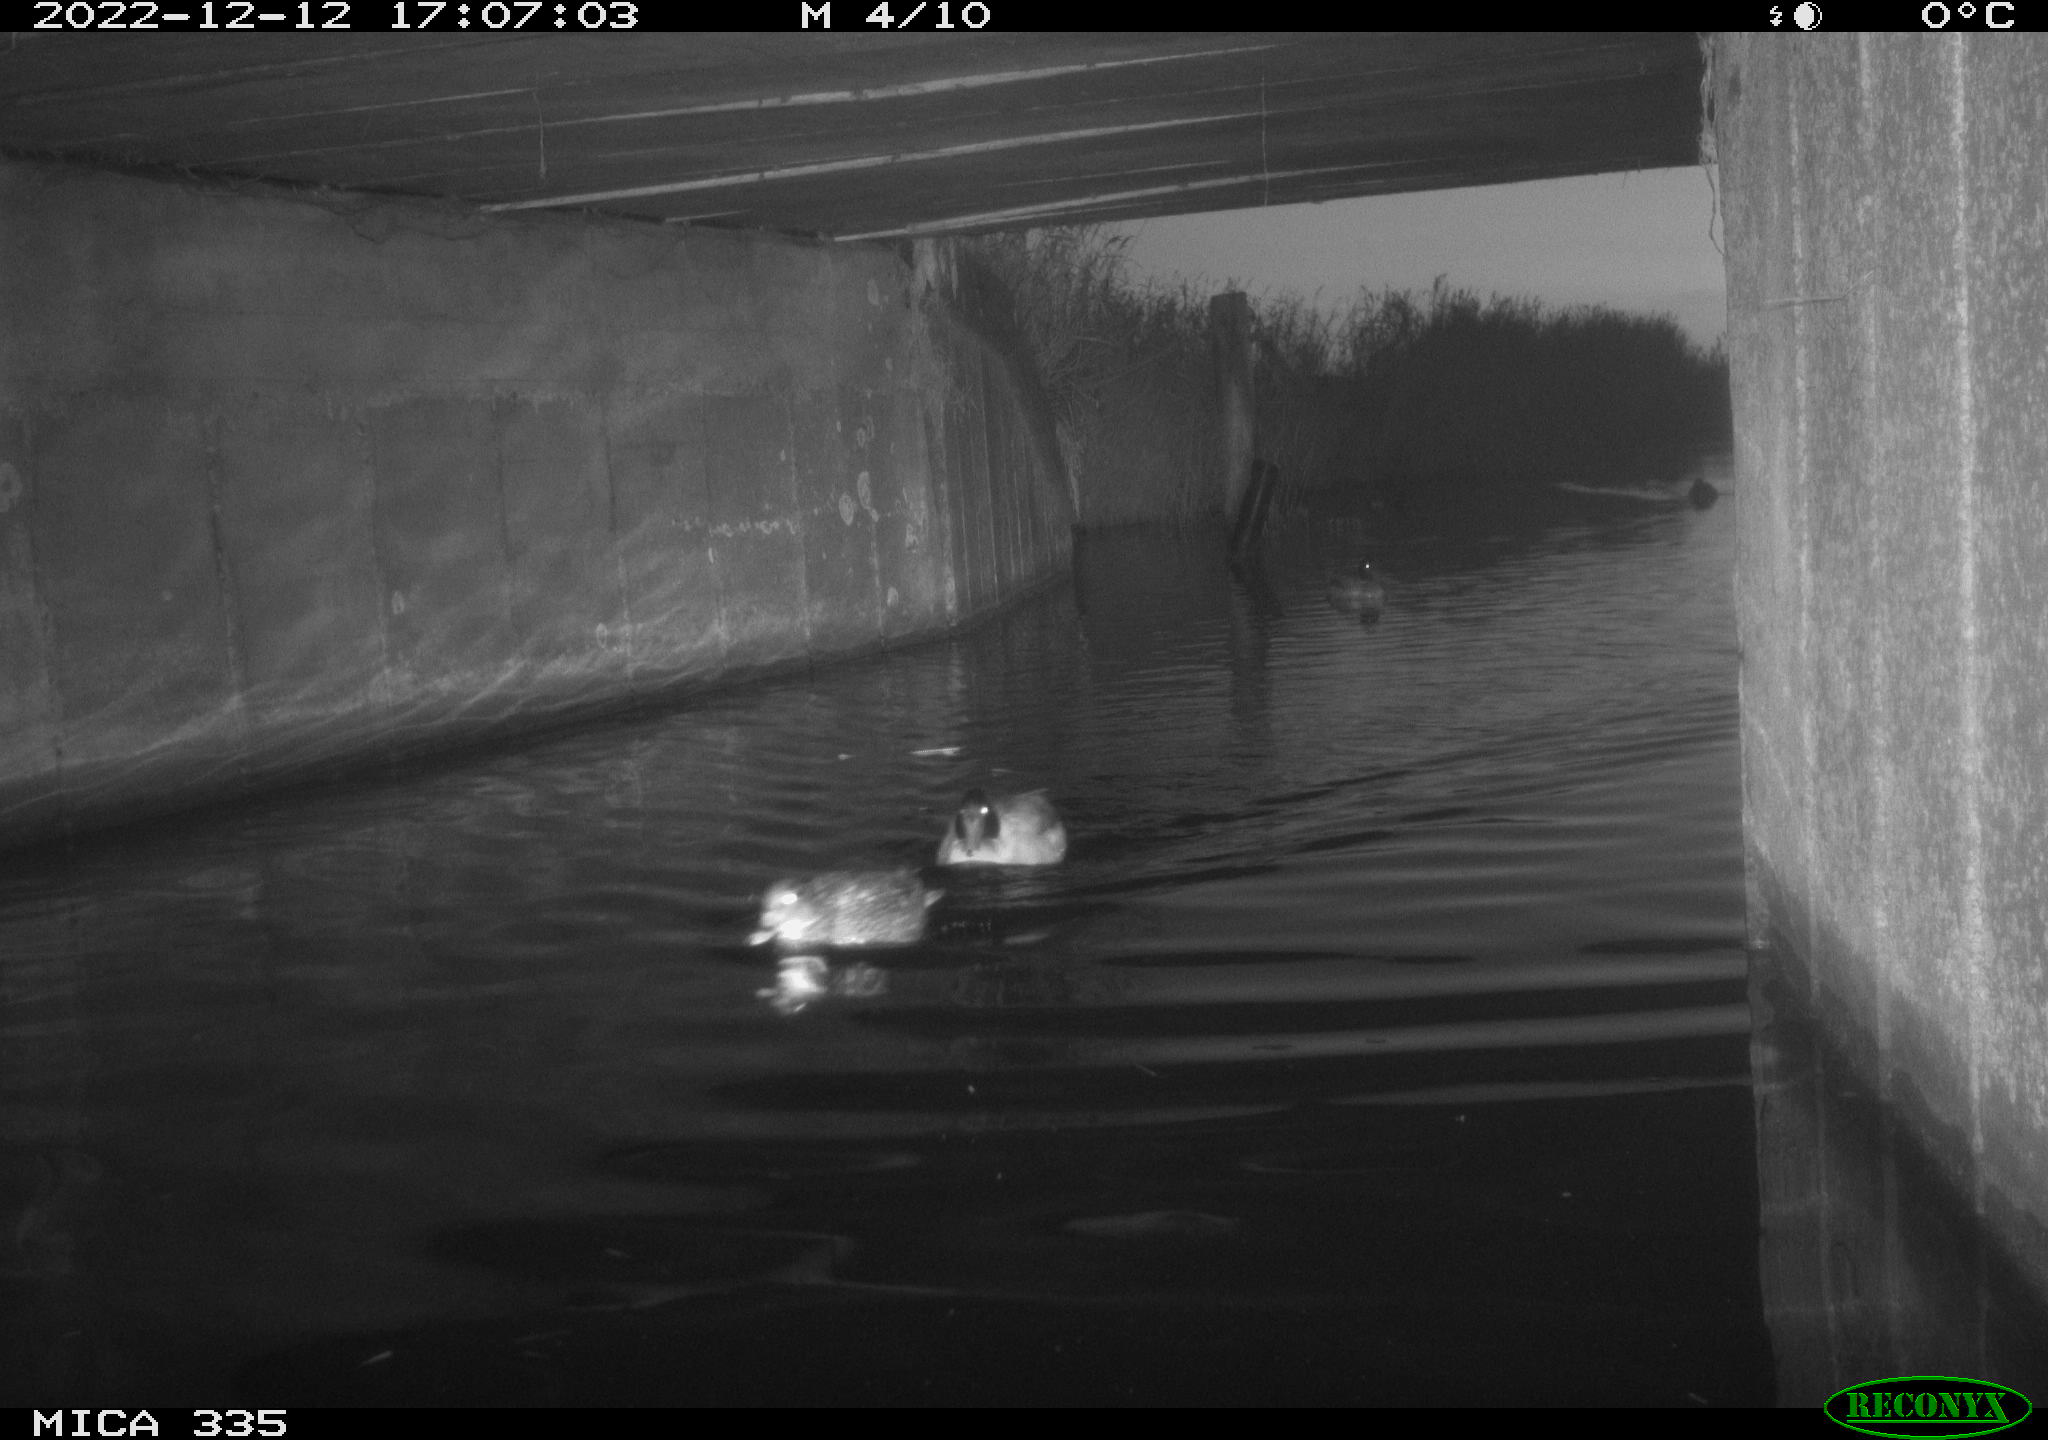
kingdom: Animalia
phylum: Chordata
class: Aves
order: Anseriformes
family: Anatidae
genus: Anas
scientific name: Anas
